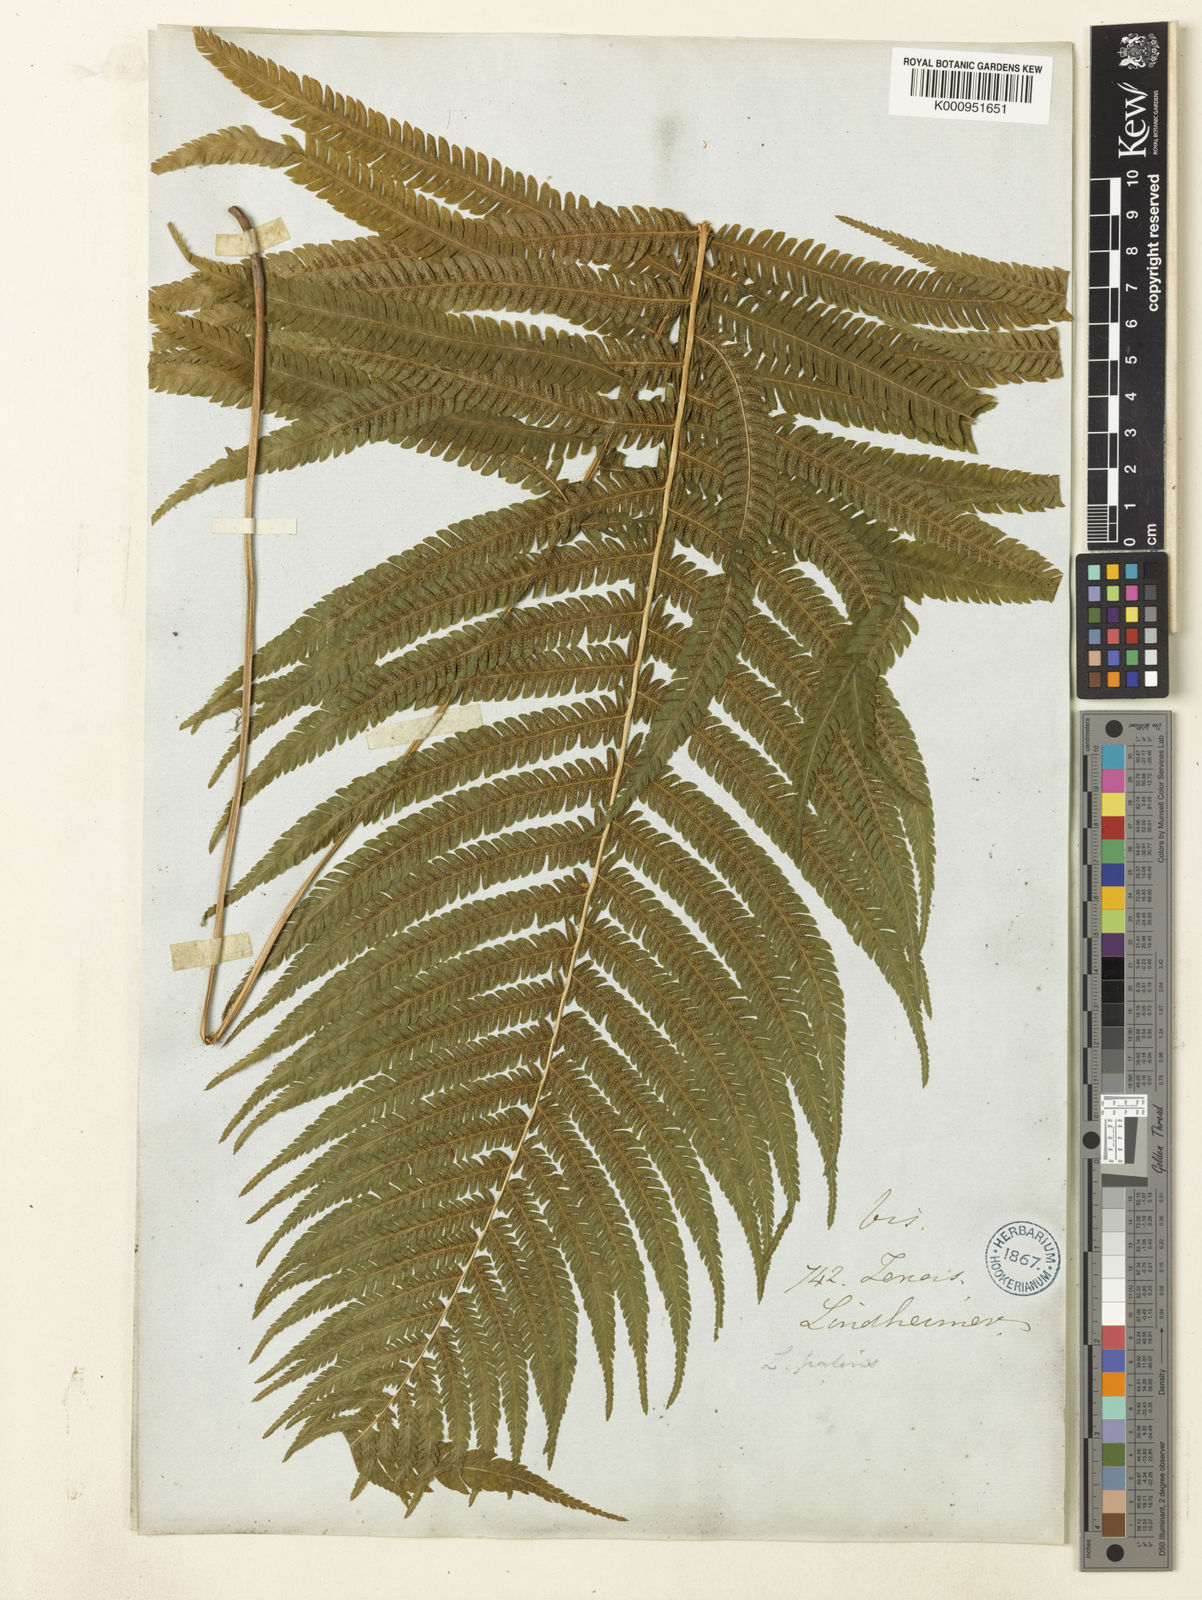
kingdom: Plantae
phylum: Tracheophyta
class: Polypodiopsida
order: Polypodiales
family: Thelypteridaceae
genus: Christella
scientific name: Christella
